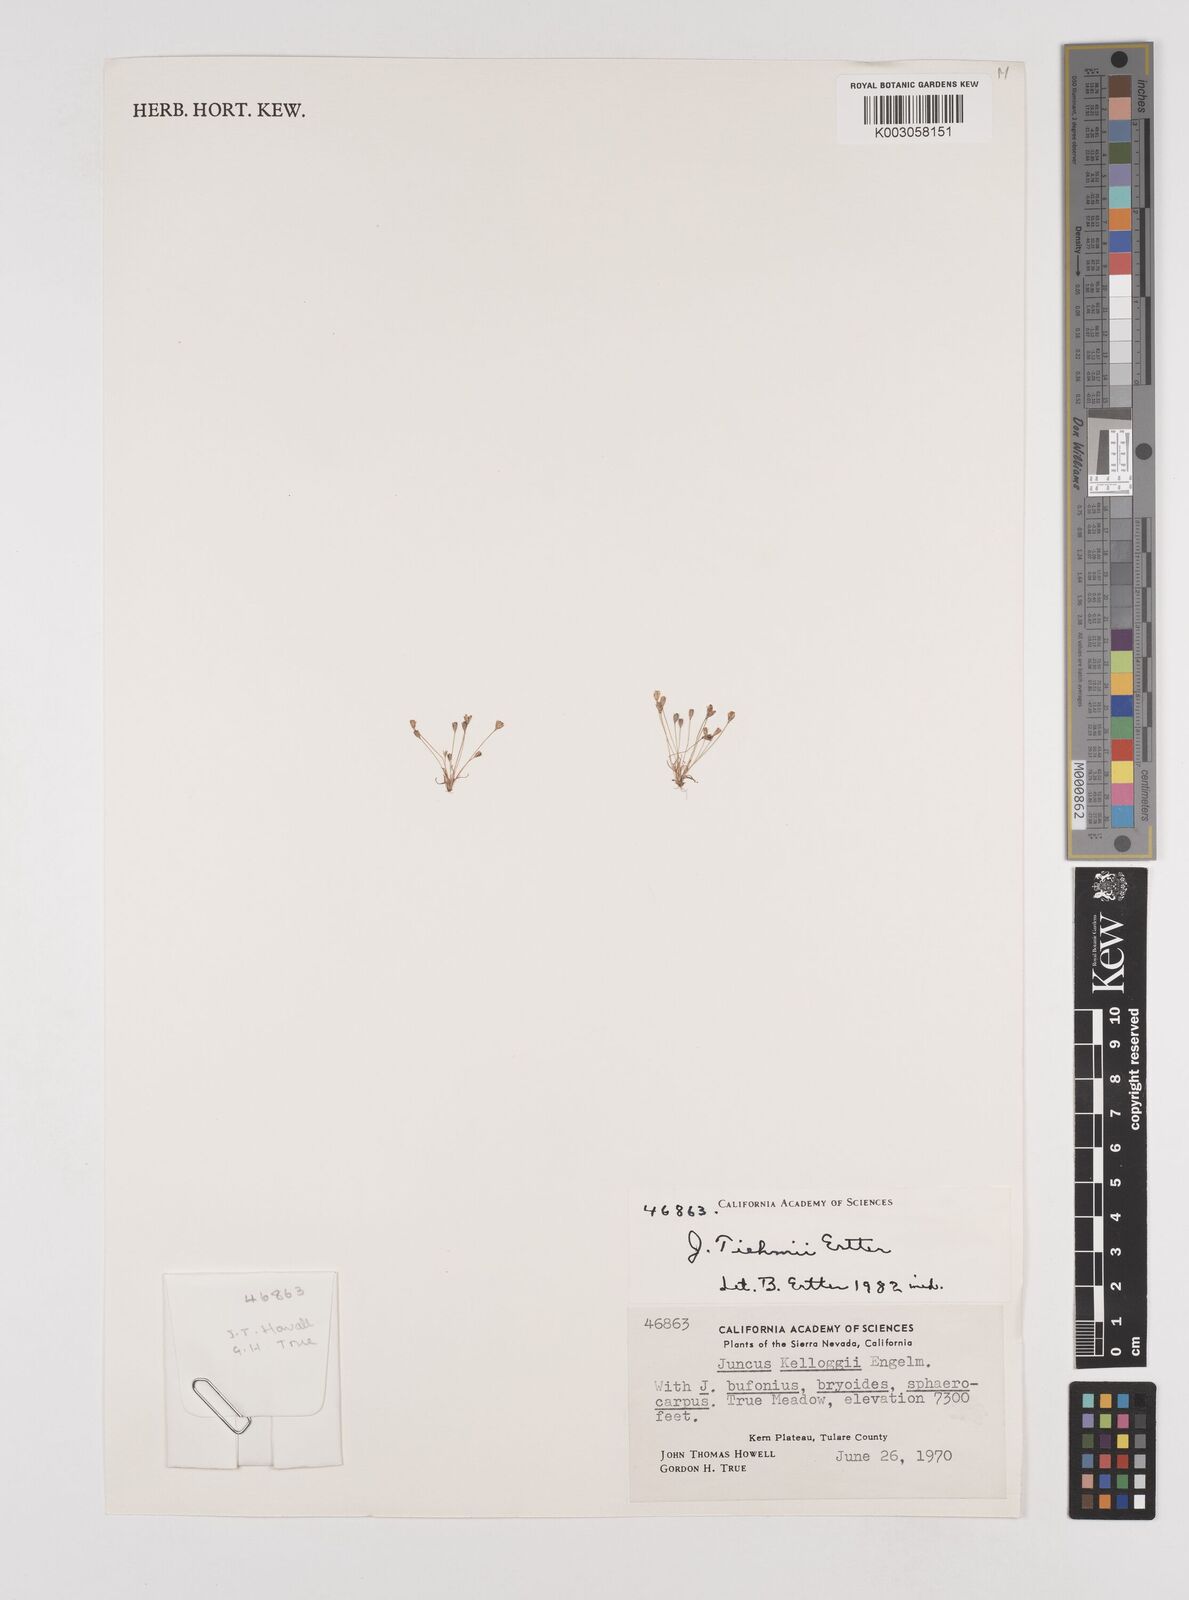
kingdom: Plantae
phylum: Tracheophyta
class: Liliopsida
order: Poales
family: Juncaceae
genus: Juncus
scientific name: Juncus tiehmii
